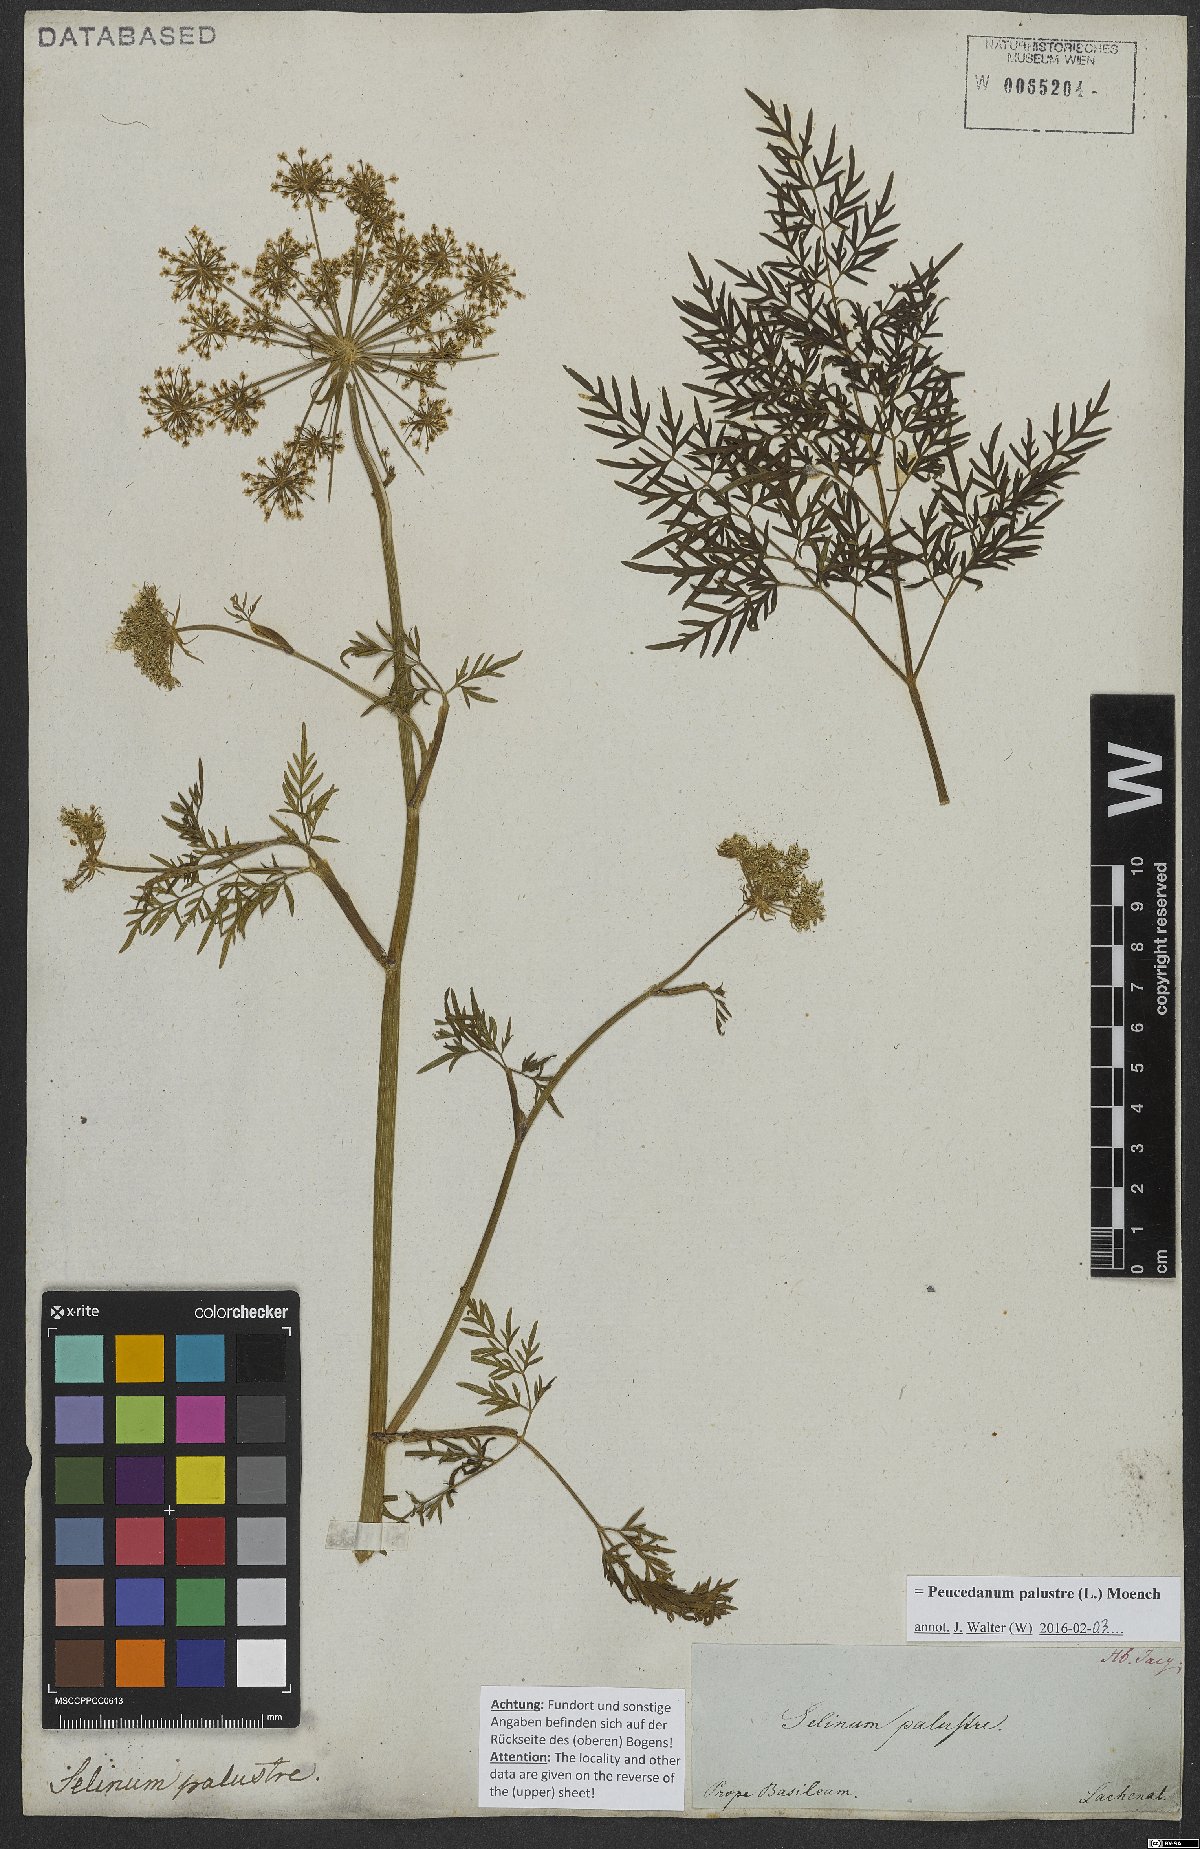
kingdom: Plantae
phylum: Tracheophyta
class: Magnoliopsida
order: Apiales
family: Apiaceae
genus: Thysselinum
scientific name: Thysselinum palustre
